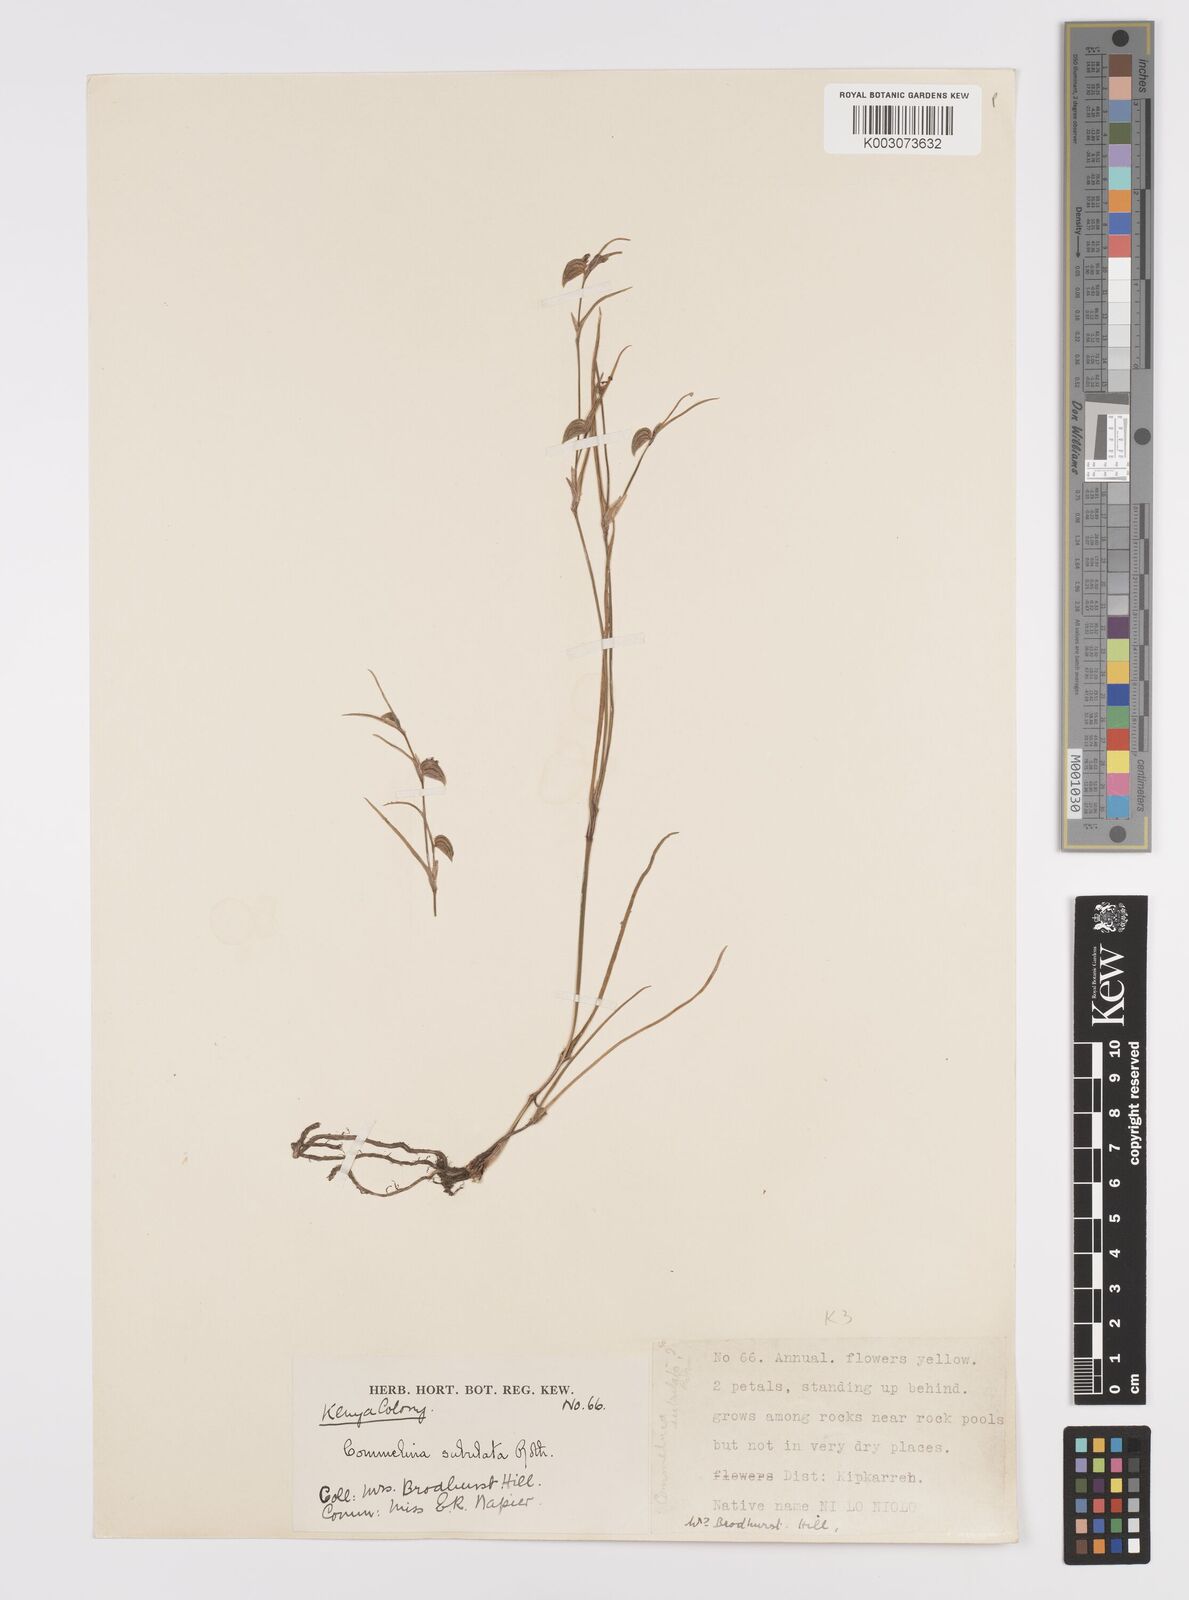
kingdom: Plantae
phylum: Tracheophyta
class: Liliopsida
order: Commelinales
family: Commelinaceae
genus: Commelina
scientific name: Commelina purpurea
